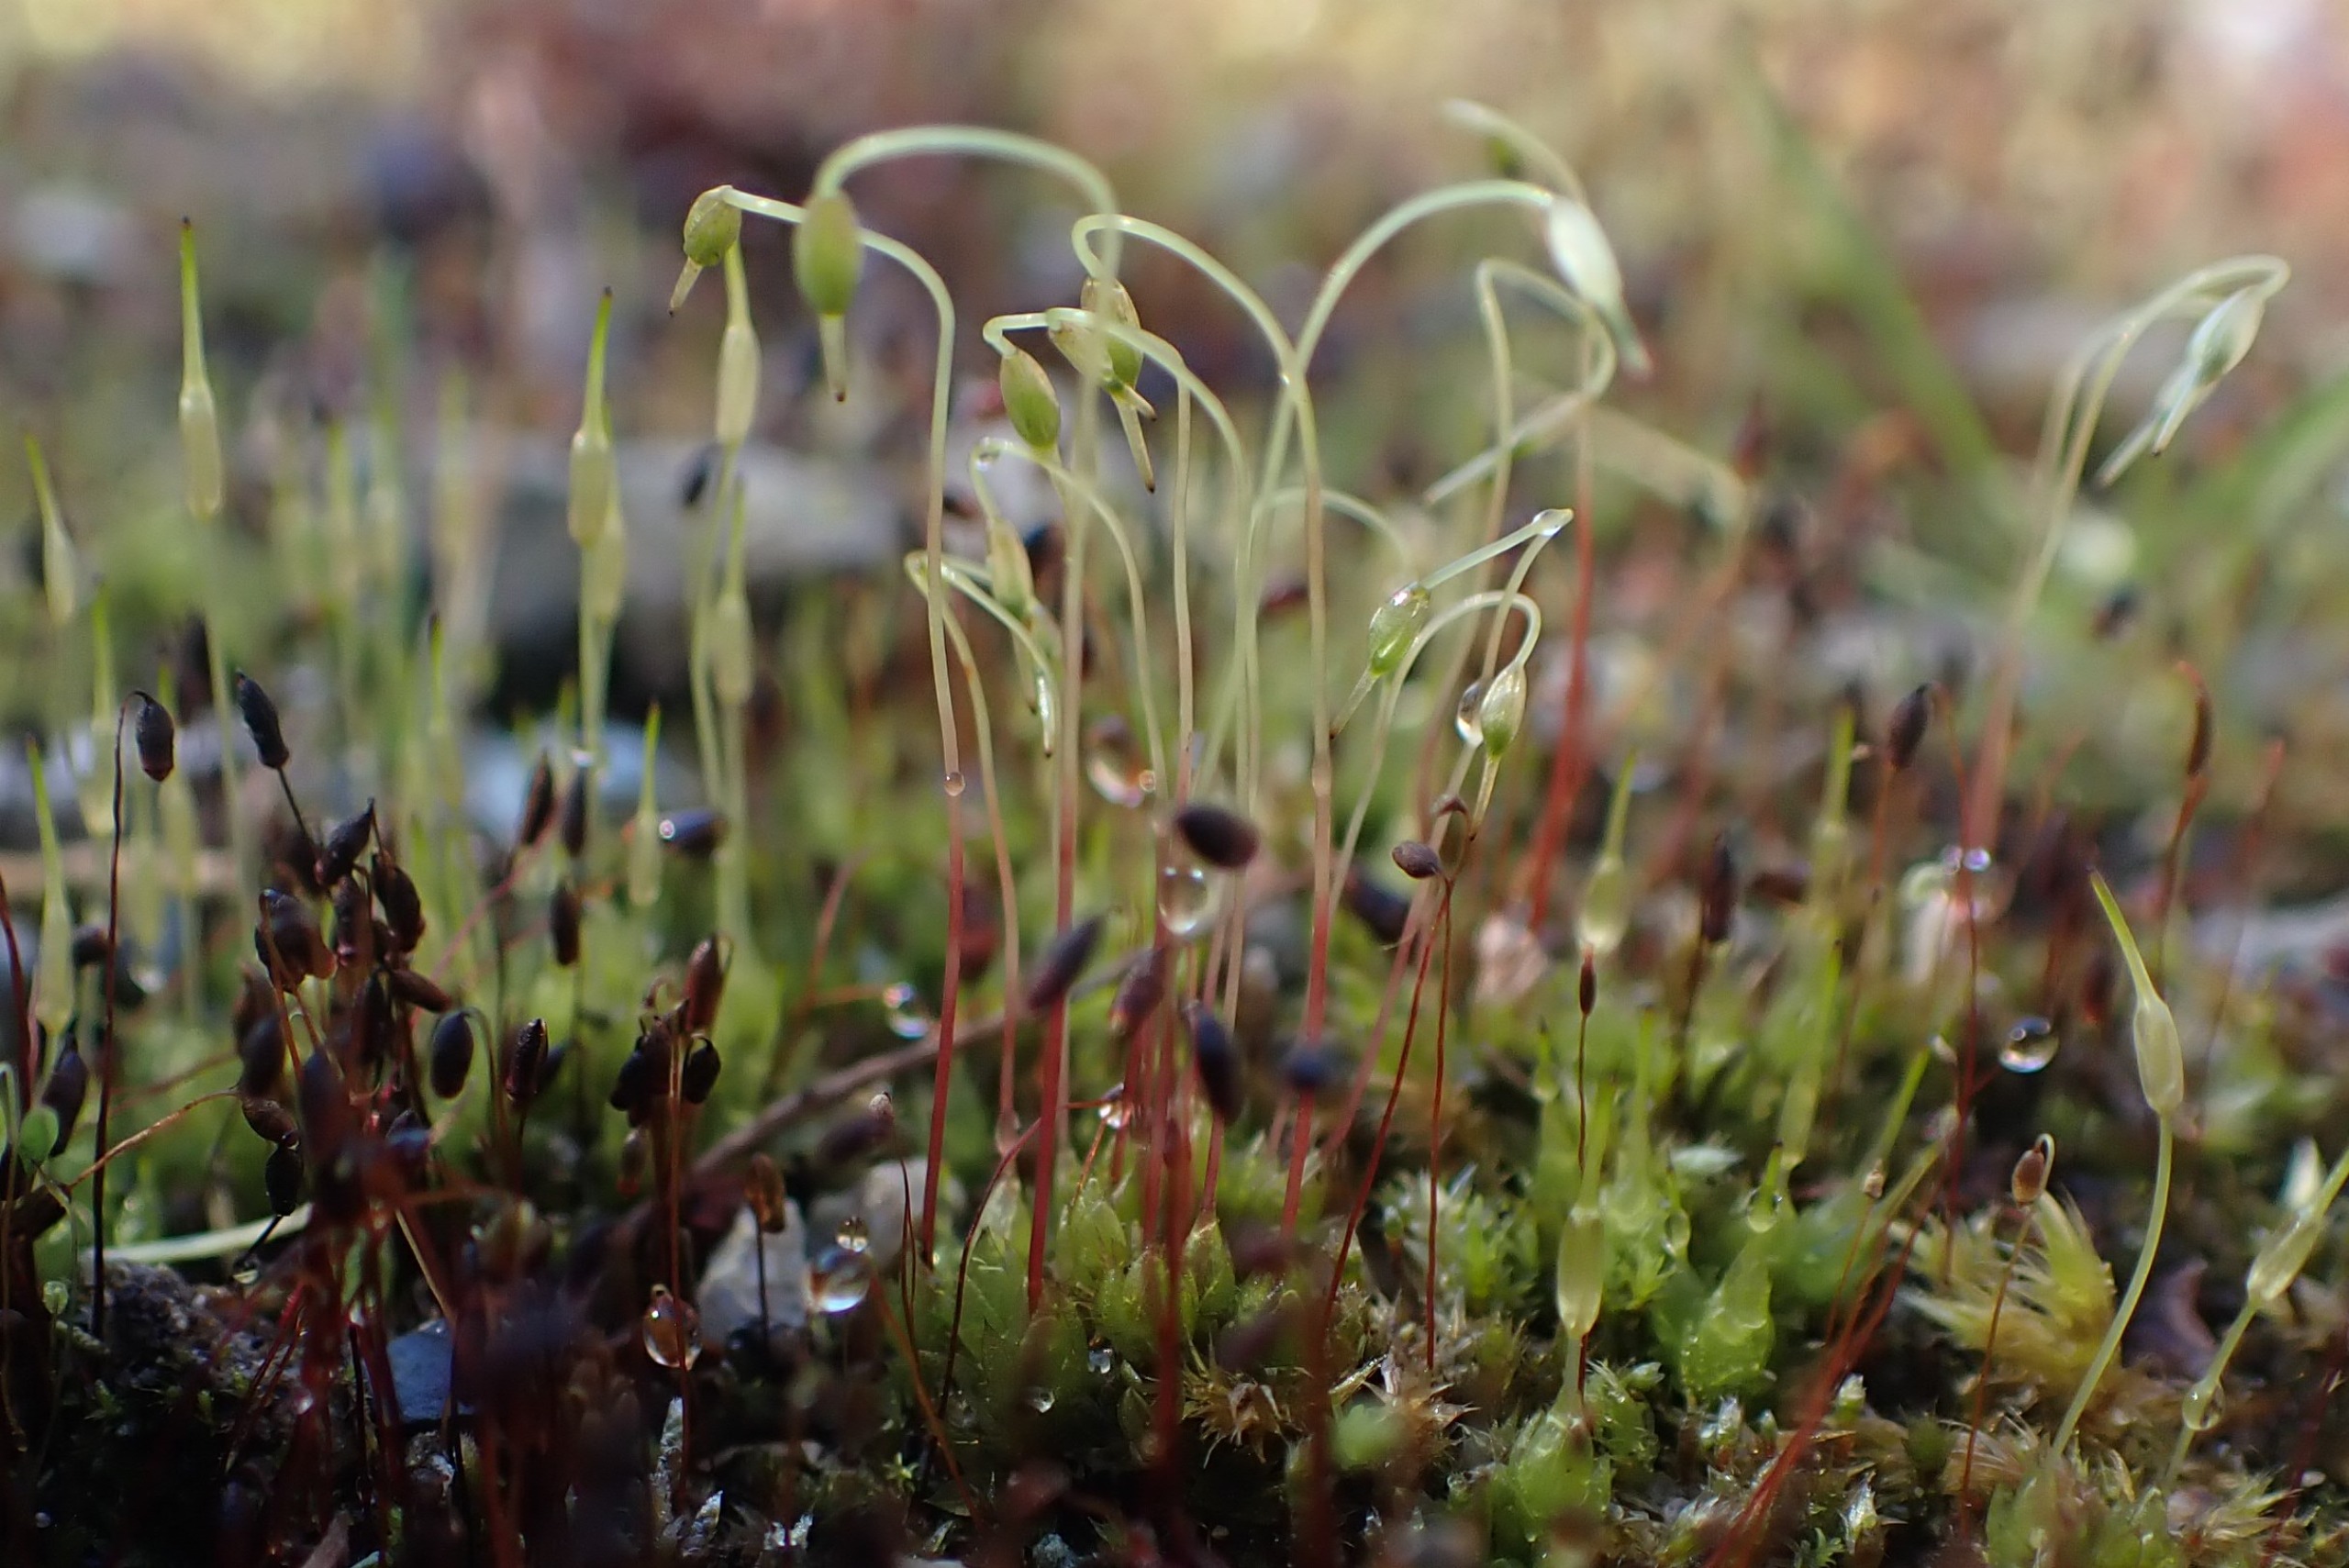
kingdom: Plantae
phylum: Bryophyta
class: Bryopsida
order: Funariales
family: Funariaceae
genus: Funaria
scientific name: Funaria hygrometrica
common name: Almindelig snobørste
